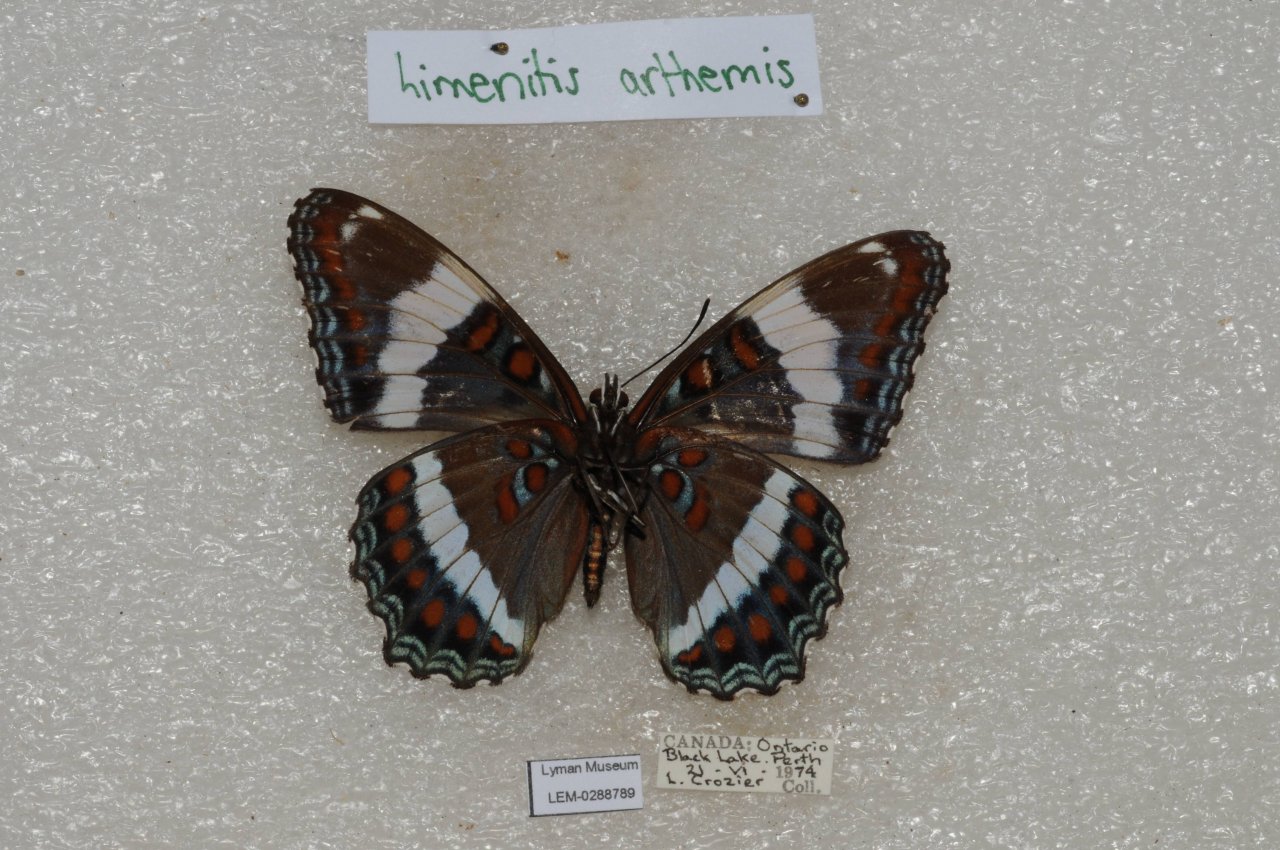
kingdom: Animalia
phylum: Arthropoda
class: Insecta
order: Lepidoptera
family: Nymphalidae
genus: Limenitis
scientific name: Limenitis arthemis
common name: Red-spotted Admiral
